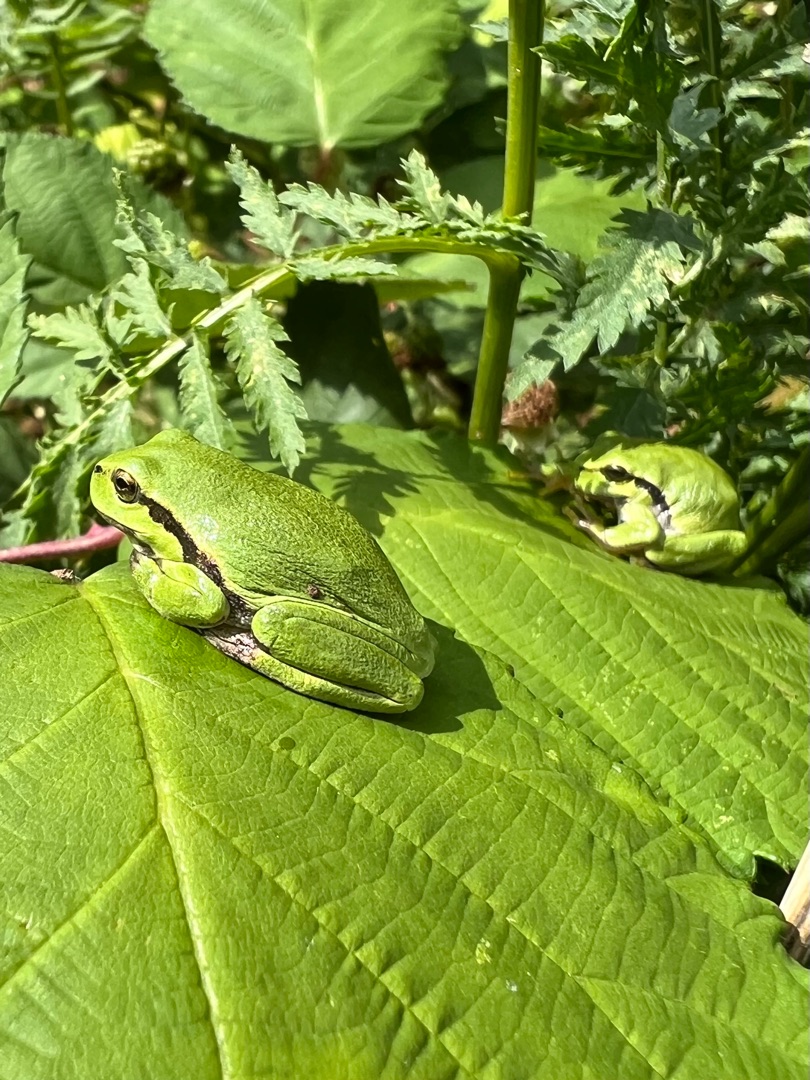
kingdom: Animalia
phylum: Chordata
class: Amphibia
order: Anura
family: Hylidae
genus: Hyla
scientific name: Hyla arborea
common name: Løvfrø
